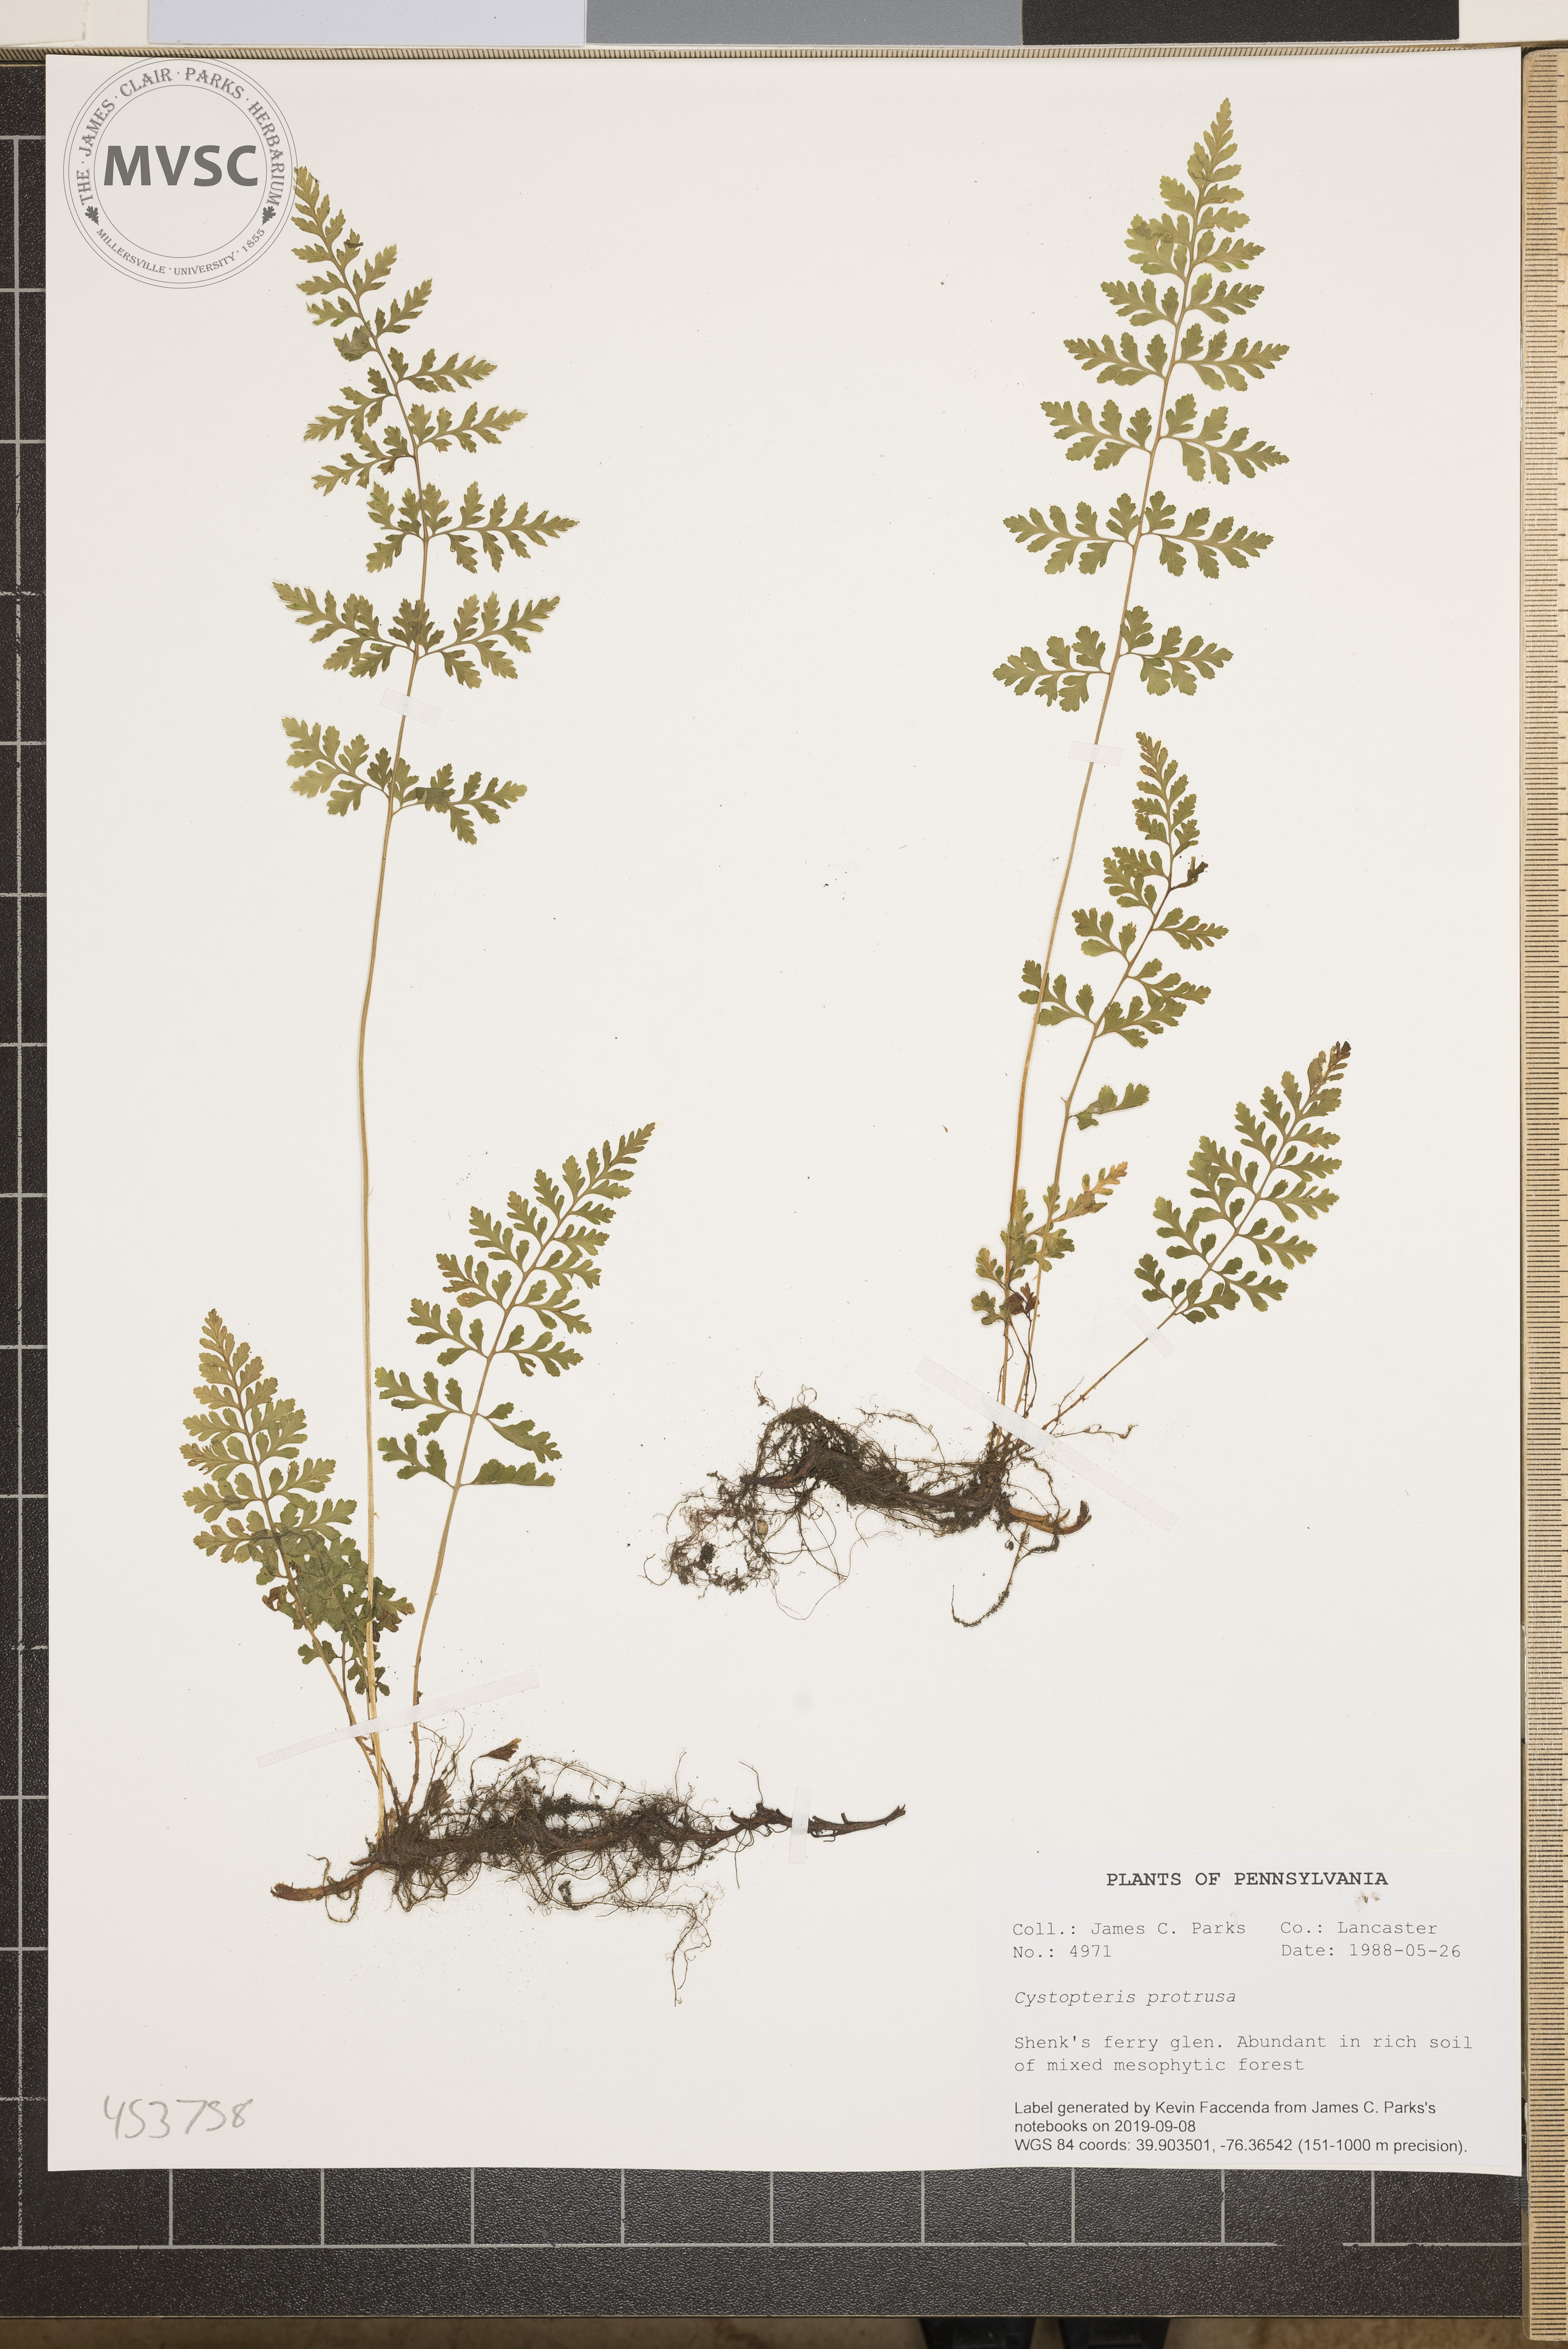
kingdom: Plantae
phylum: Tracheophyta
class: Polypodiopsida
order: Polypodiales
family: Cystopteridaceae
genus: Cystopteris
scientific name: Cystopteris protrusa
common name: Lowland brittle fern
